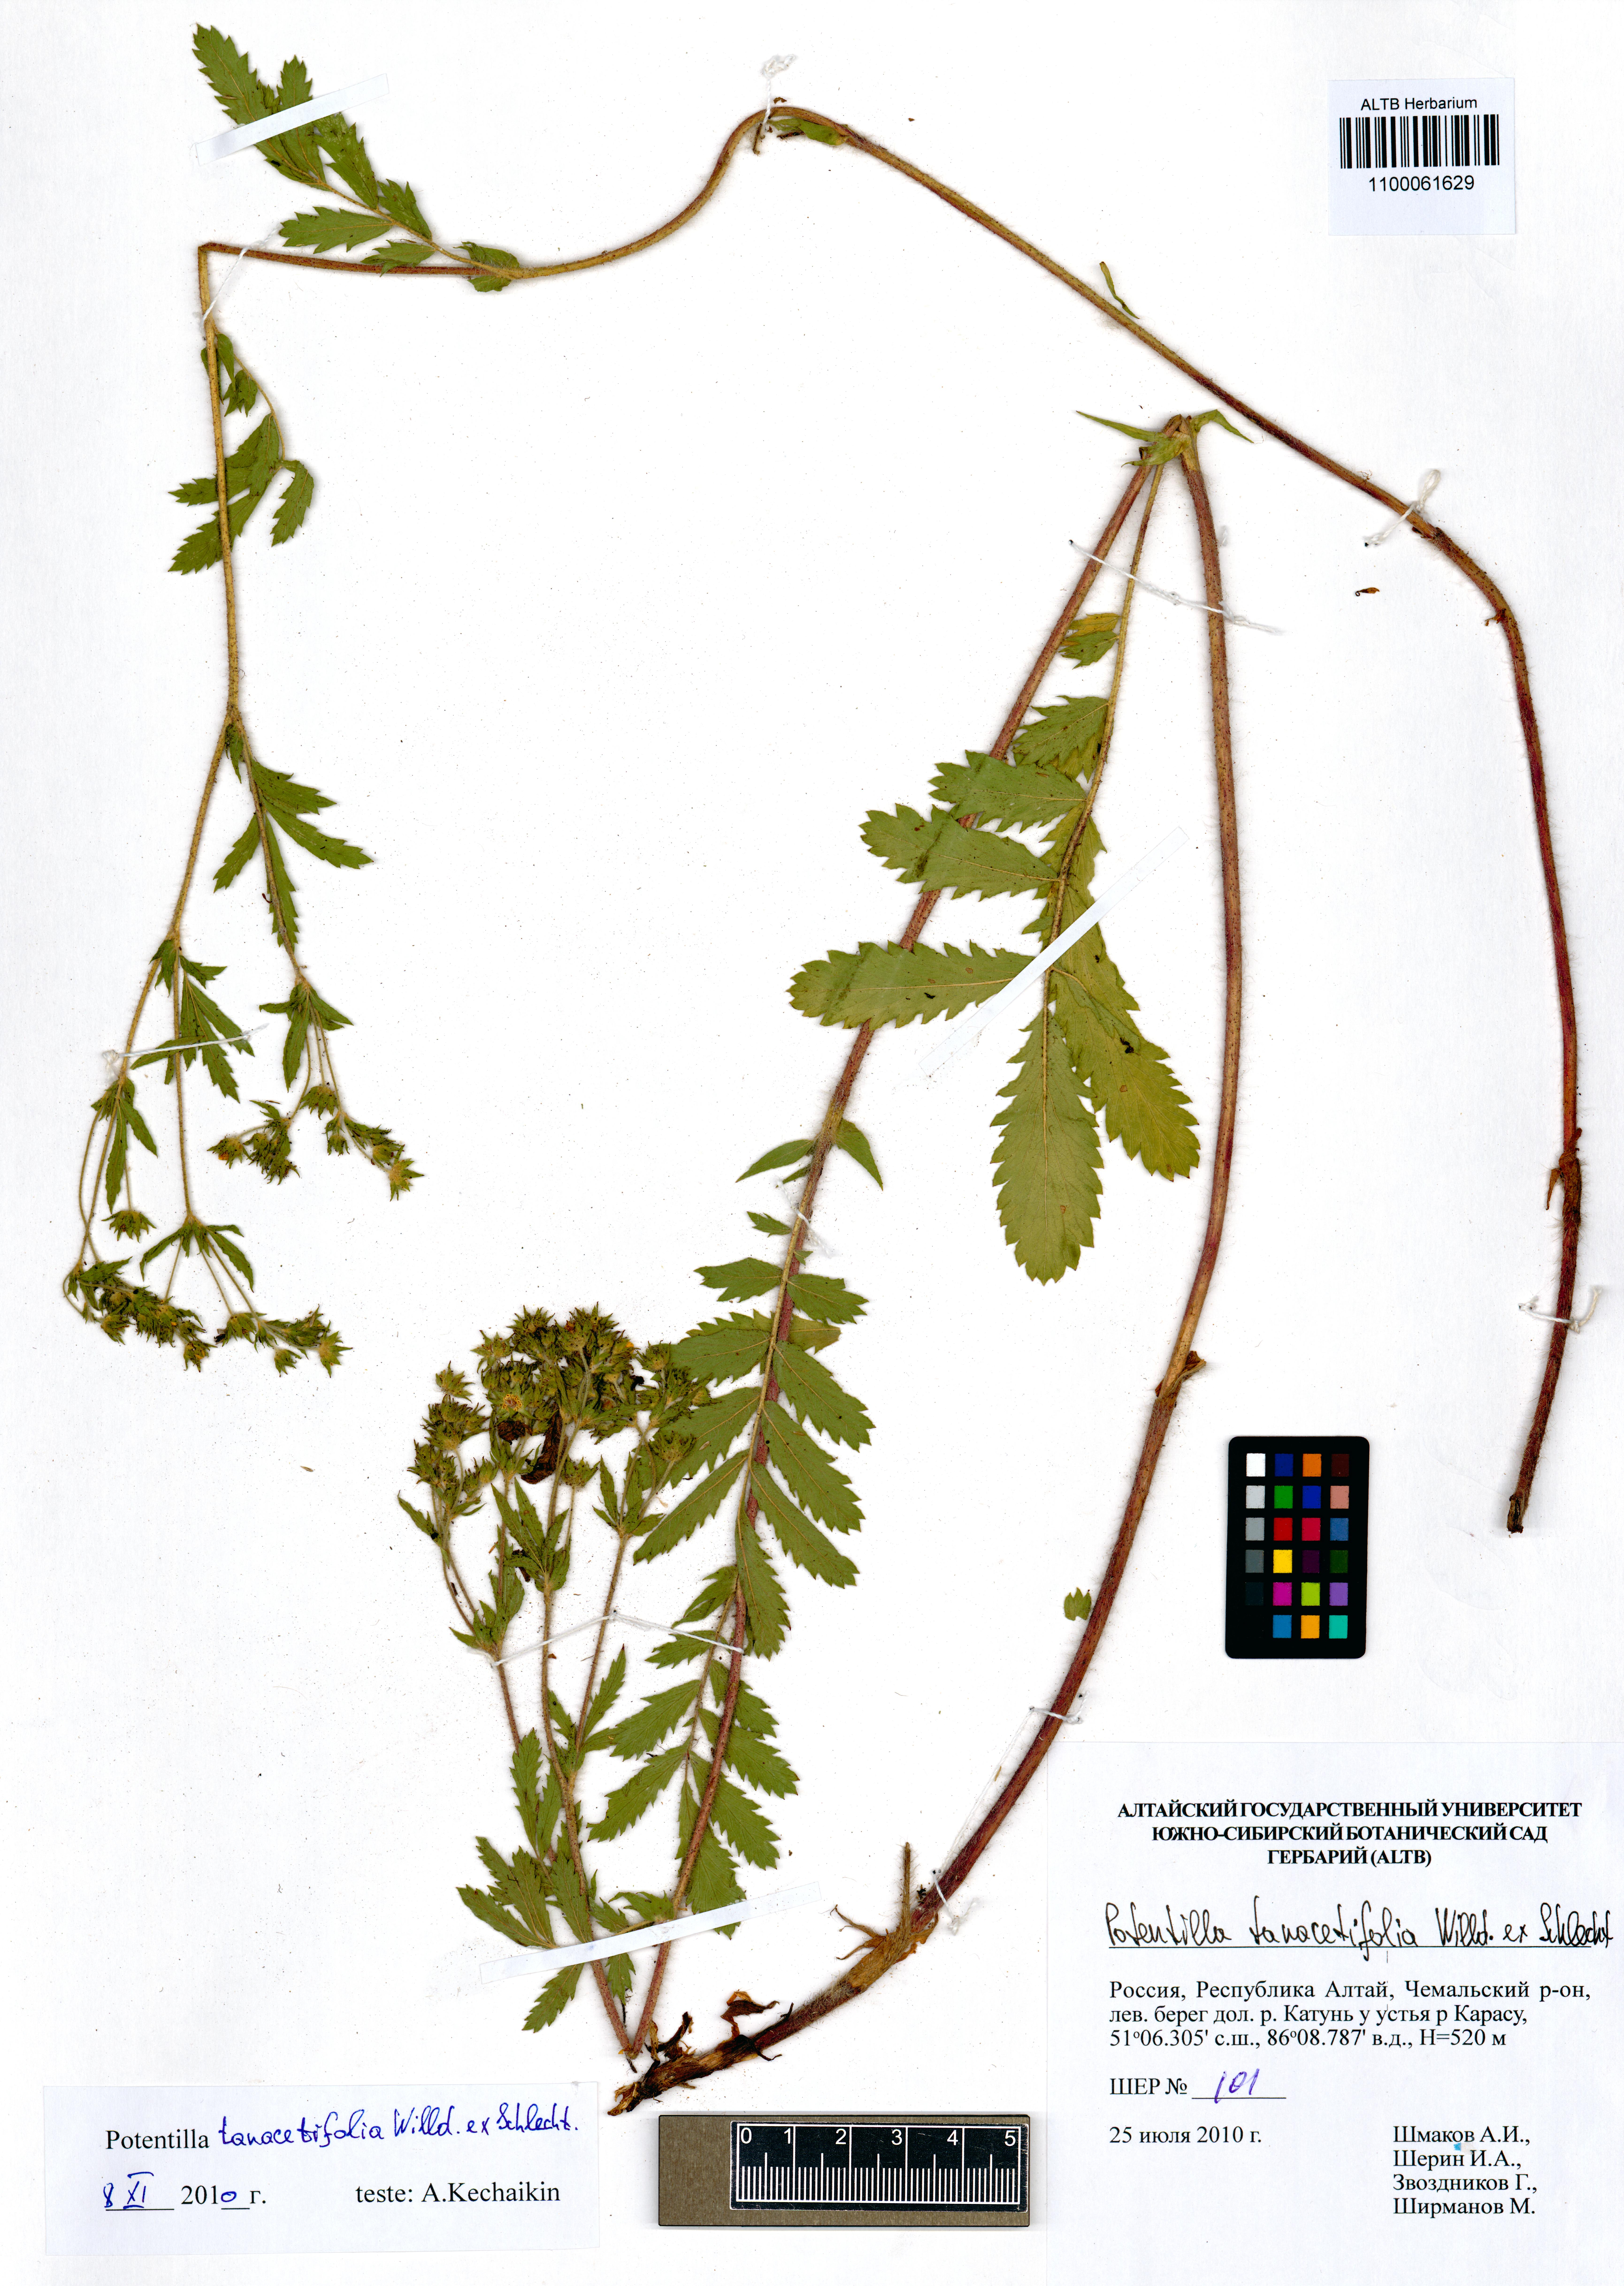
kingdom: Plantae
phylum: Tracheophyta
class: Magnoliopsida
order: Rosales
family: Rosaceae
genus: Potentilla
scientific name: Potentilla tanacetifolia
